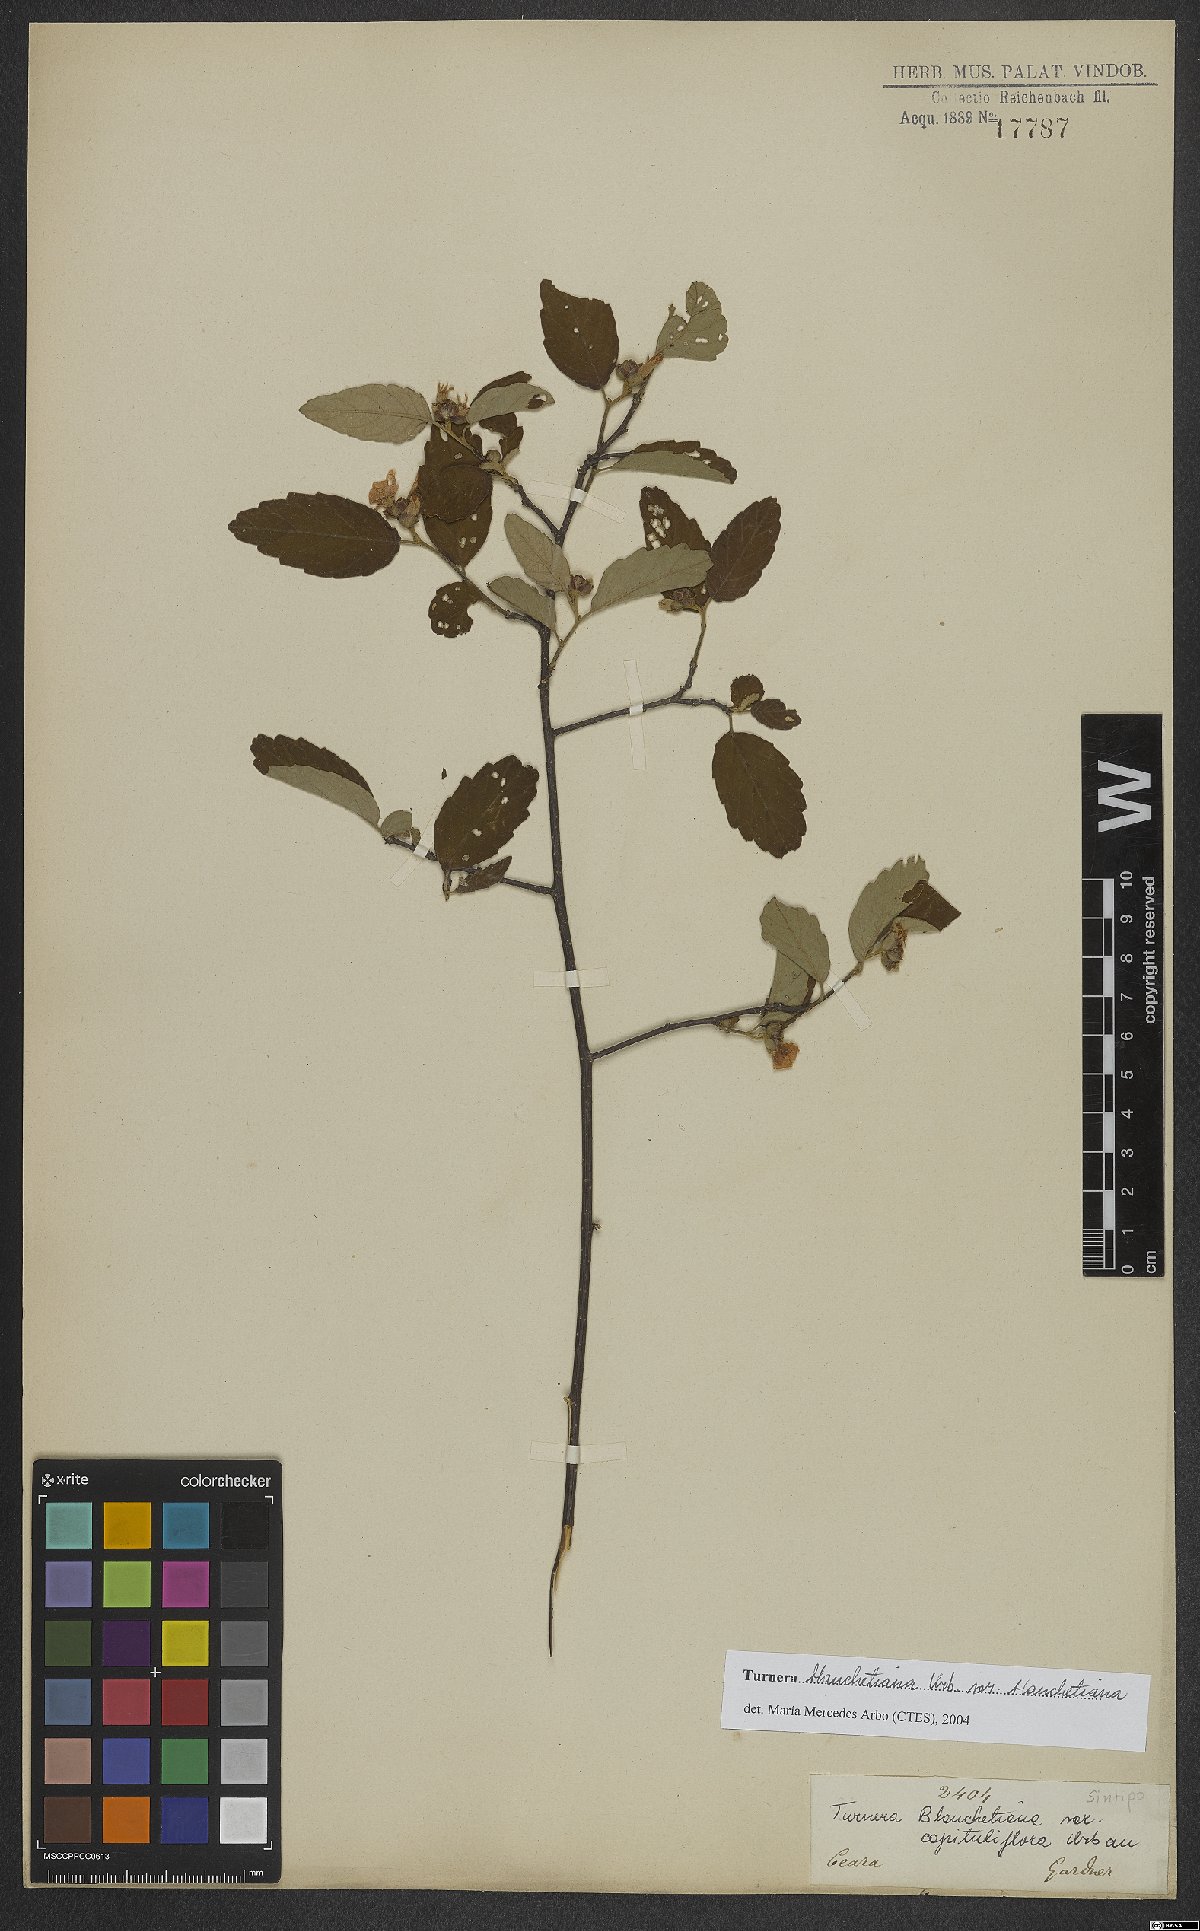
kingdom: Plantae
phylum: Tracheophyta
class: Magnoliopsida
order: Malpighiales
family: Turneraceae
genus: Turnera
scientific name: Turnera blanchetiana
